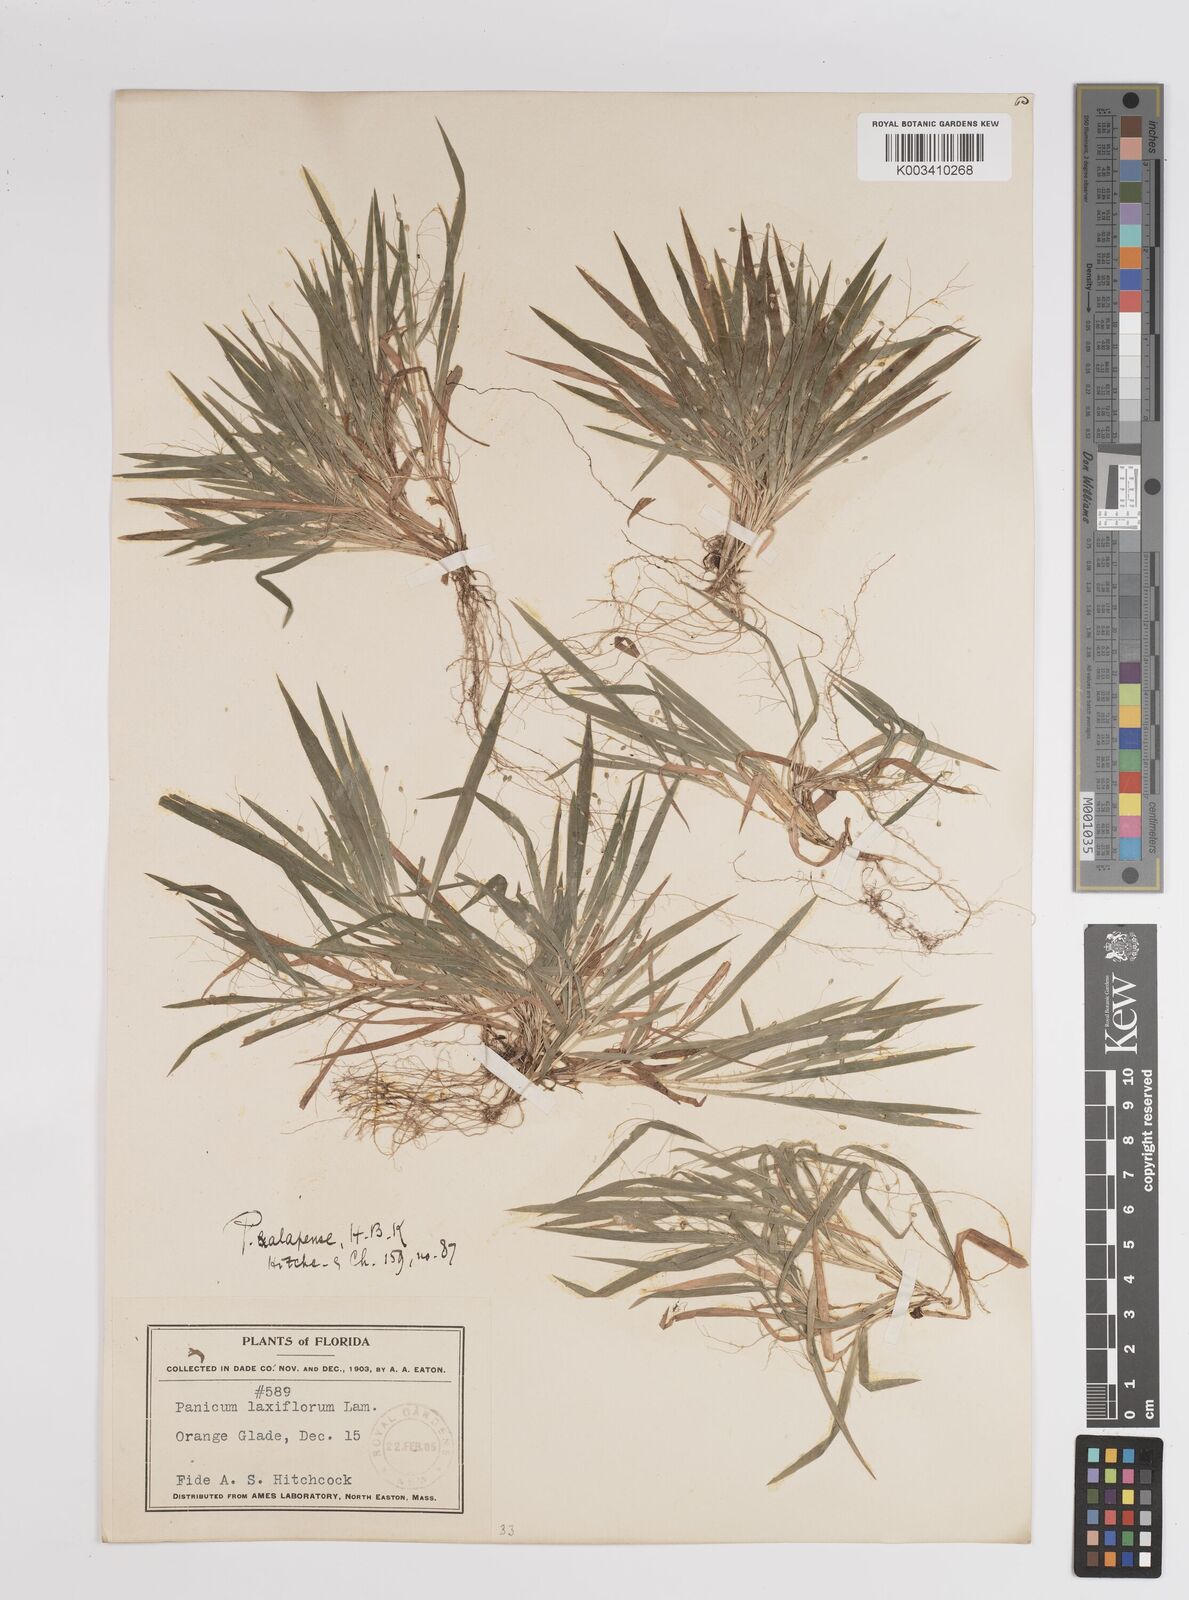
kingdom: Plantae
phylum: Tracheophyta
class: Liliopsida
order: Poales
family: Poaceae
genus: Dichanthelium
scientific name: Dichanthelium laxiflorum
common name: Soft-tuft panic grass
